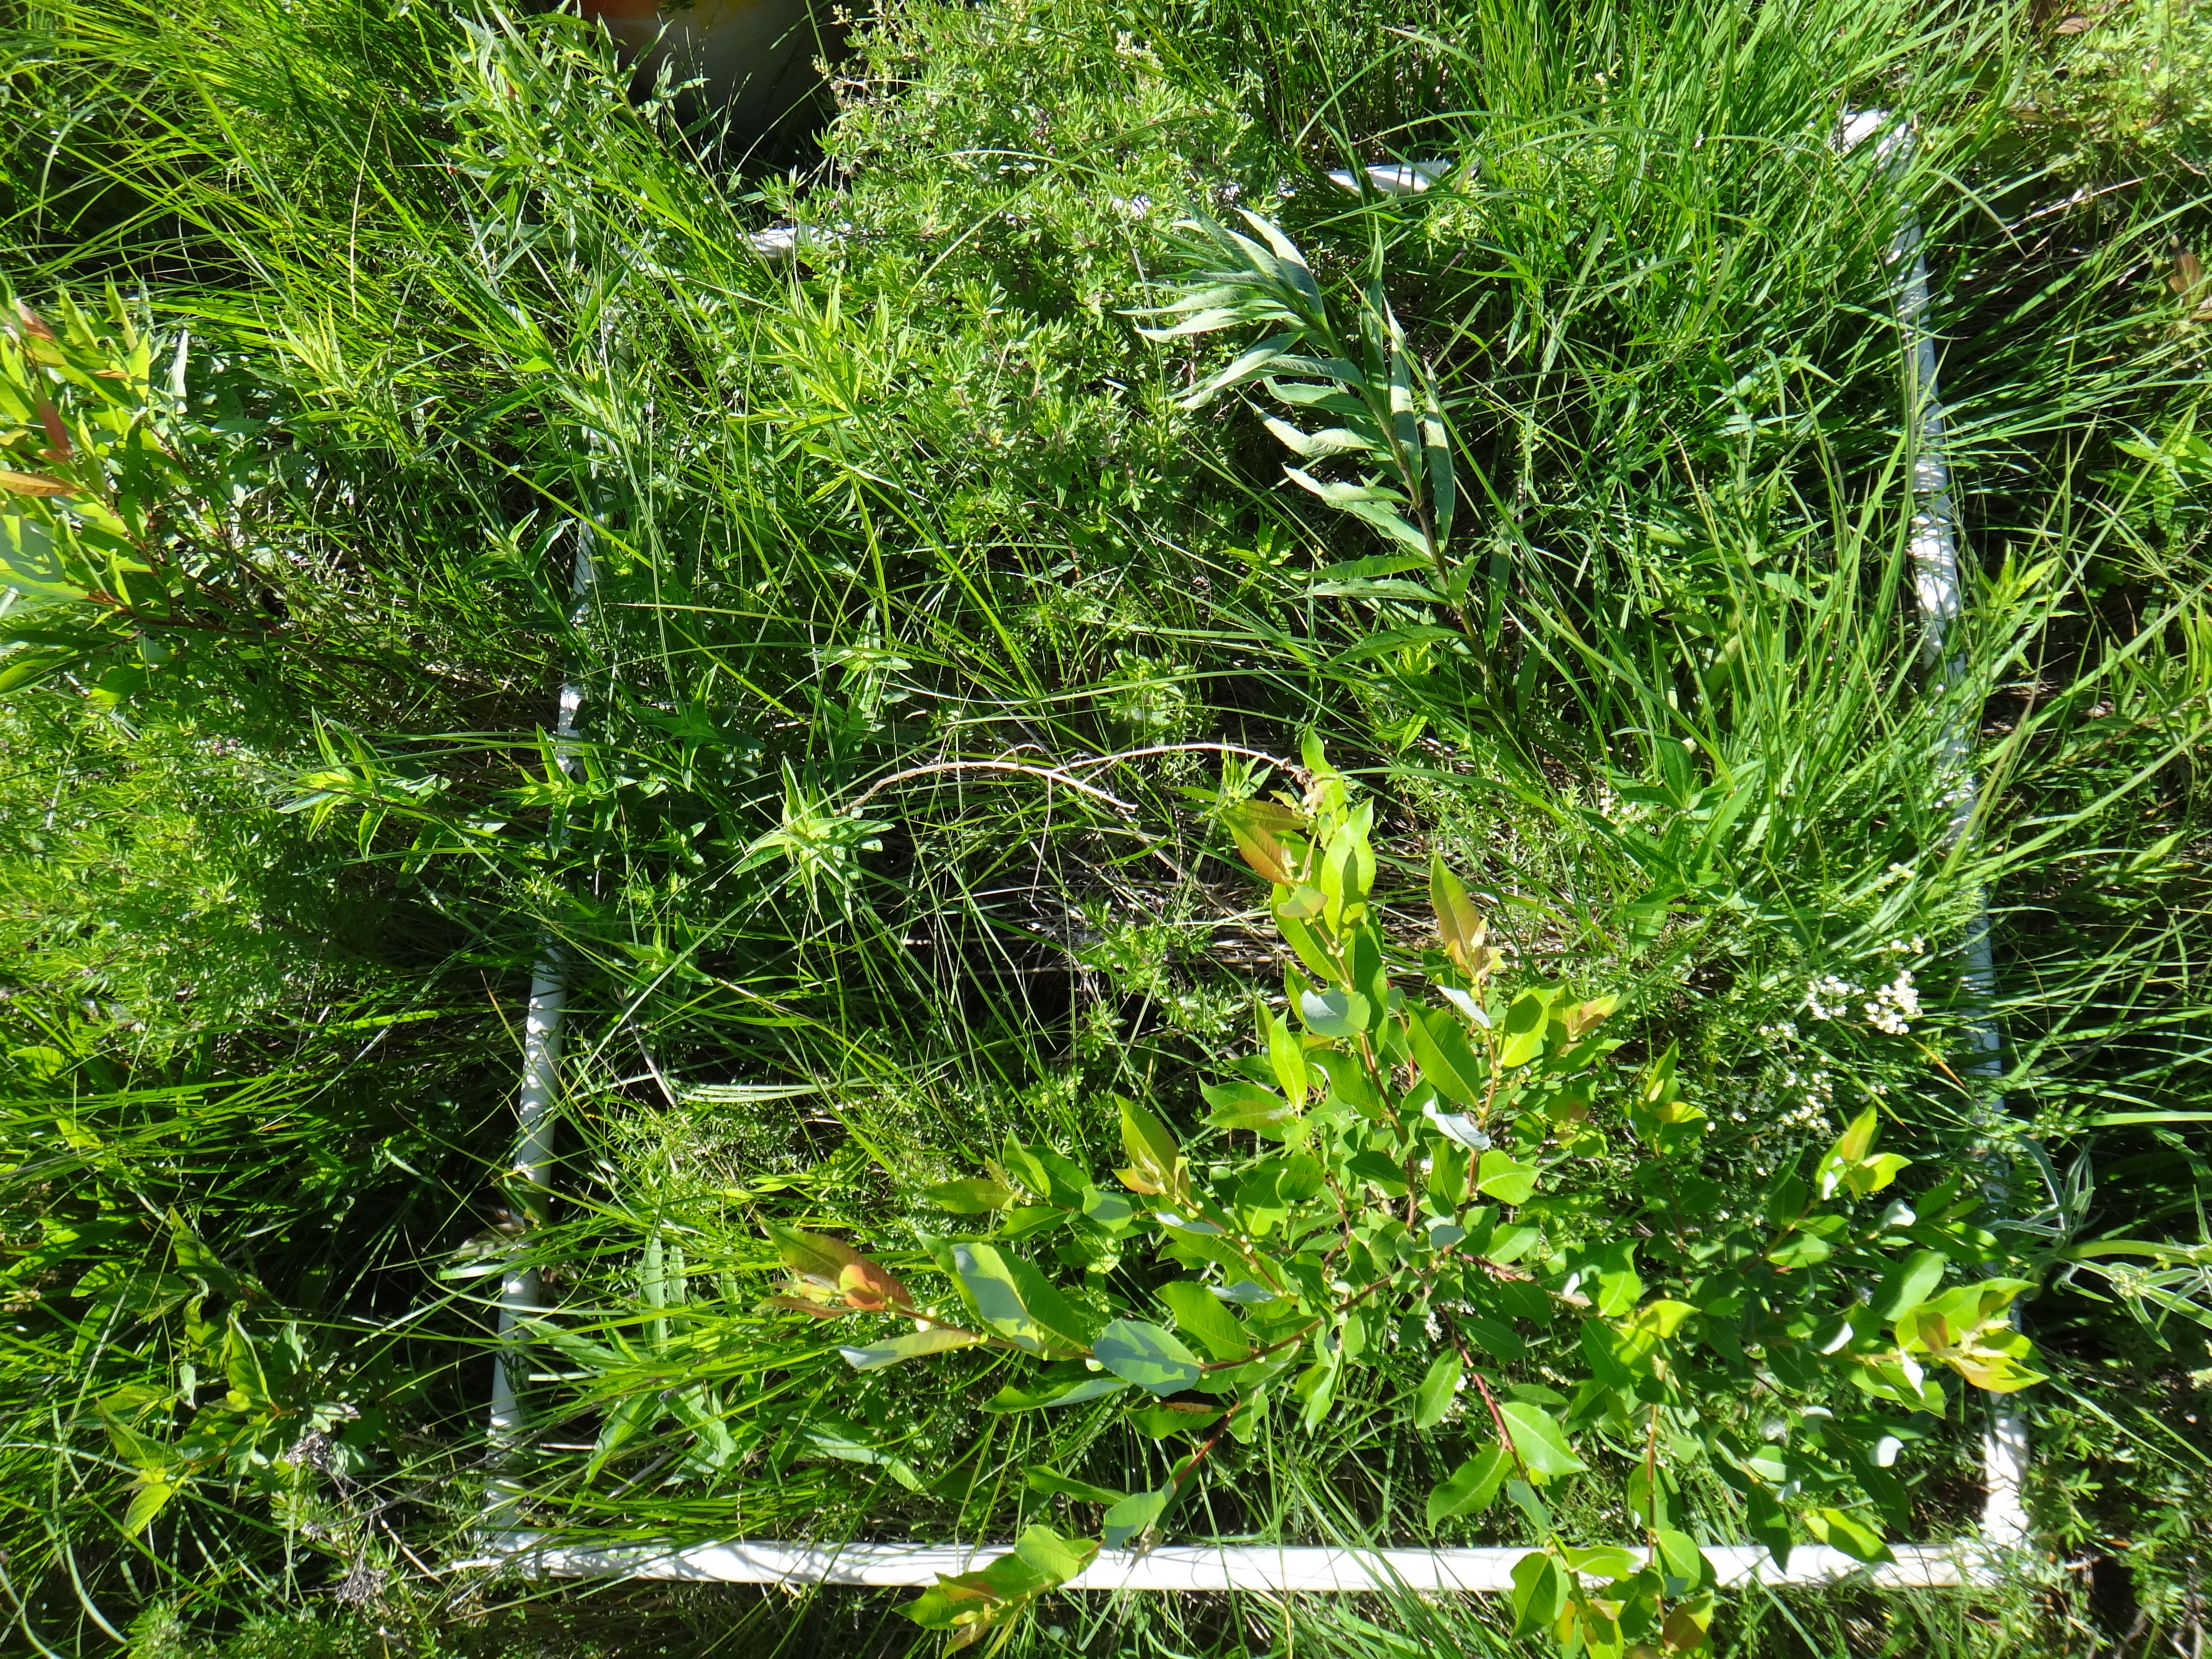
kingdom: Plantae
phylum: Tracheophyta
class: Magnoliopsida
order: Cornales
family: Cornaceae
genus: Cornus
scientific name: Cornus sericea
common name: Red-osier dogwood
